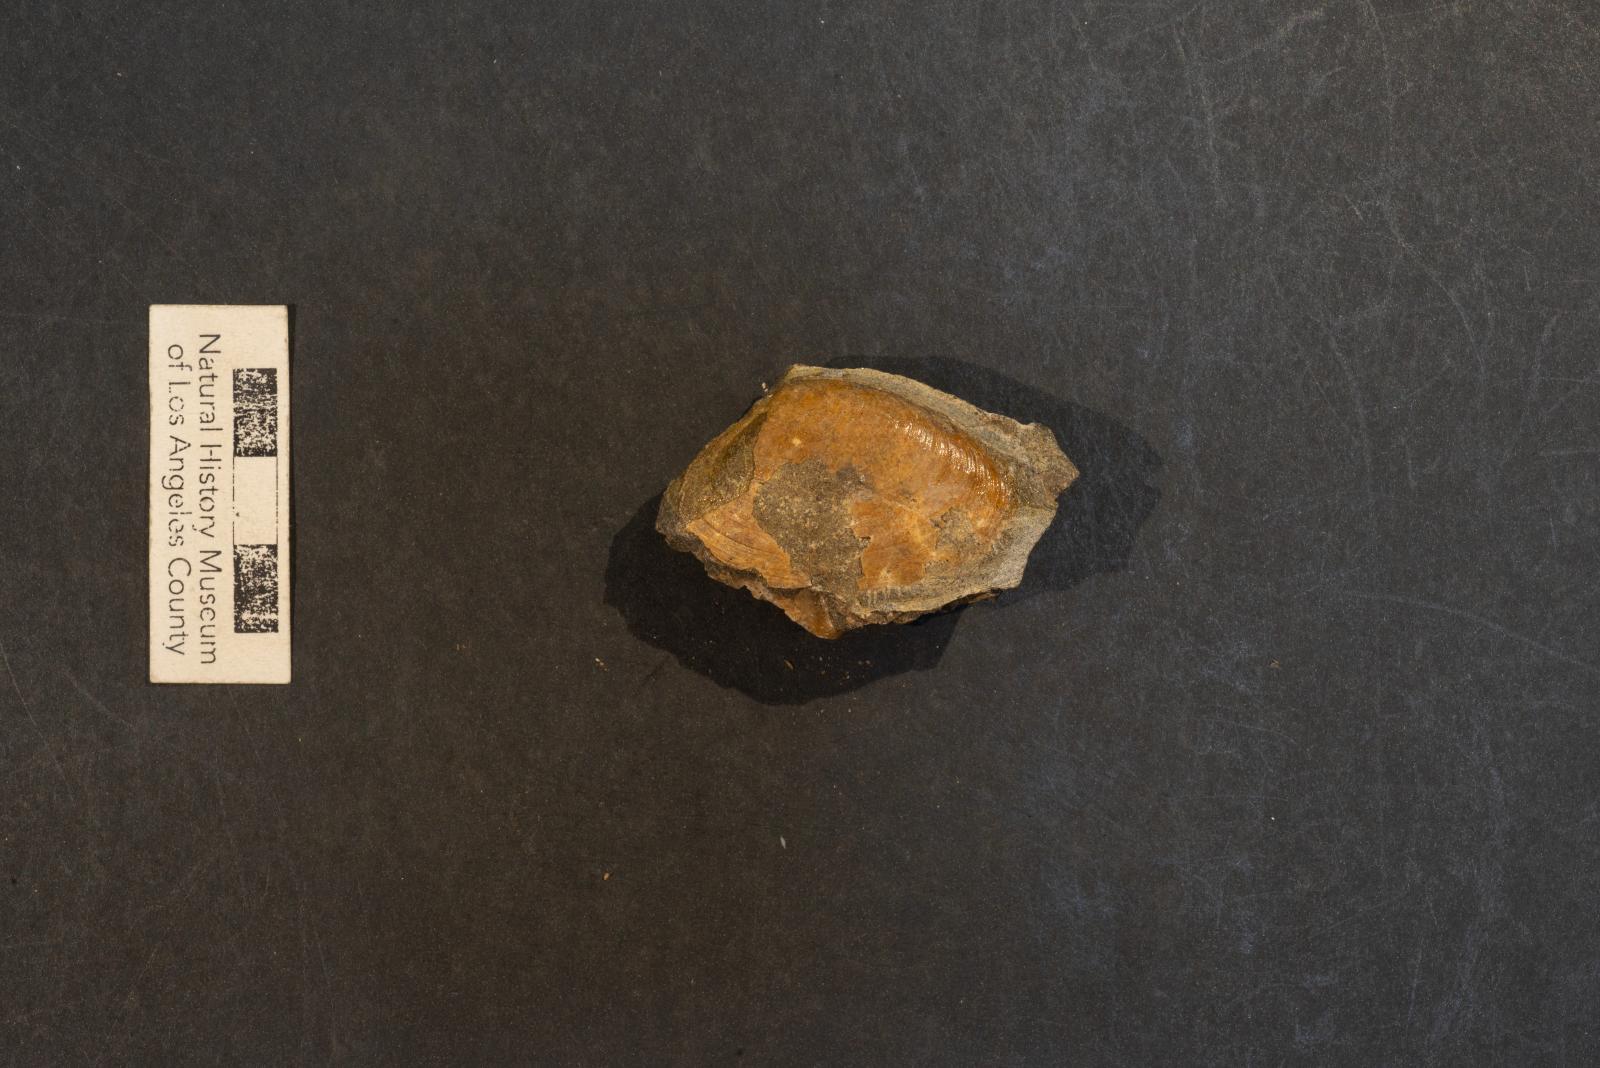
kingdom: Animalia
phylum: Mollusca
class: Bivalvia
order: Venerida
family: Veneridae
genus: Legumen
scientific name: Legumen ooides
